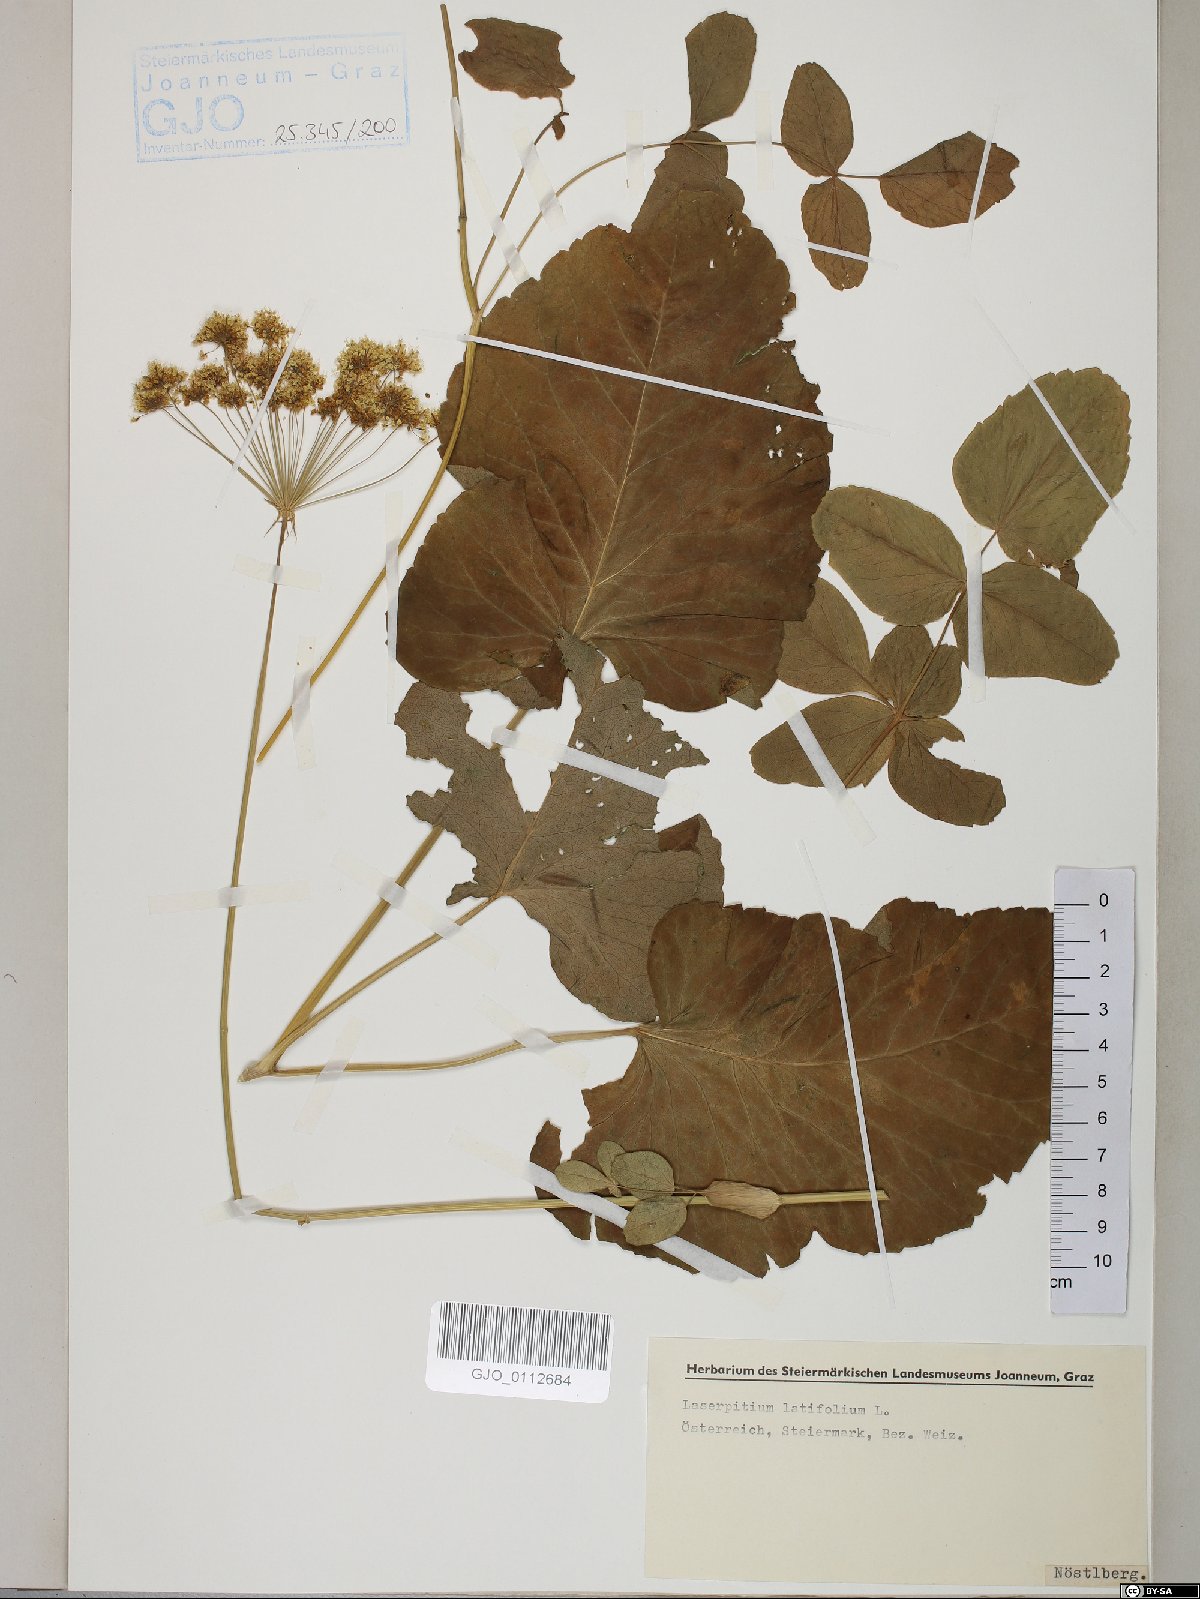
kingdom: Plantae
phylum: Tracheophyta
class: Magnoliopsida
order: Apiales
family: Apiaceae
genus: Laserpitium
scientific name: Laserpitium latifolium
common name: Broadleaf sermountain
